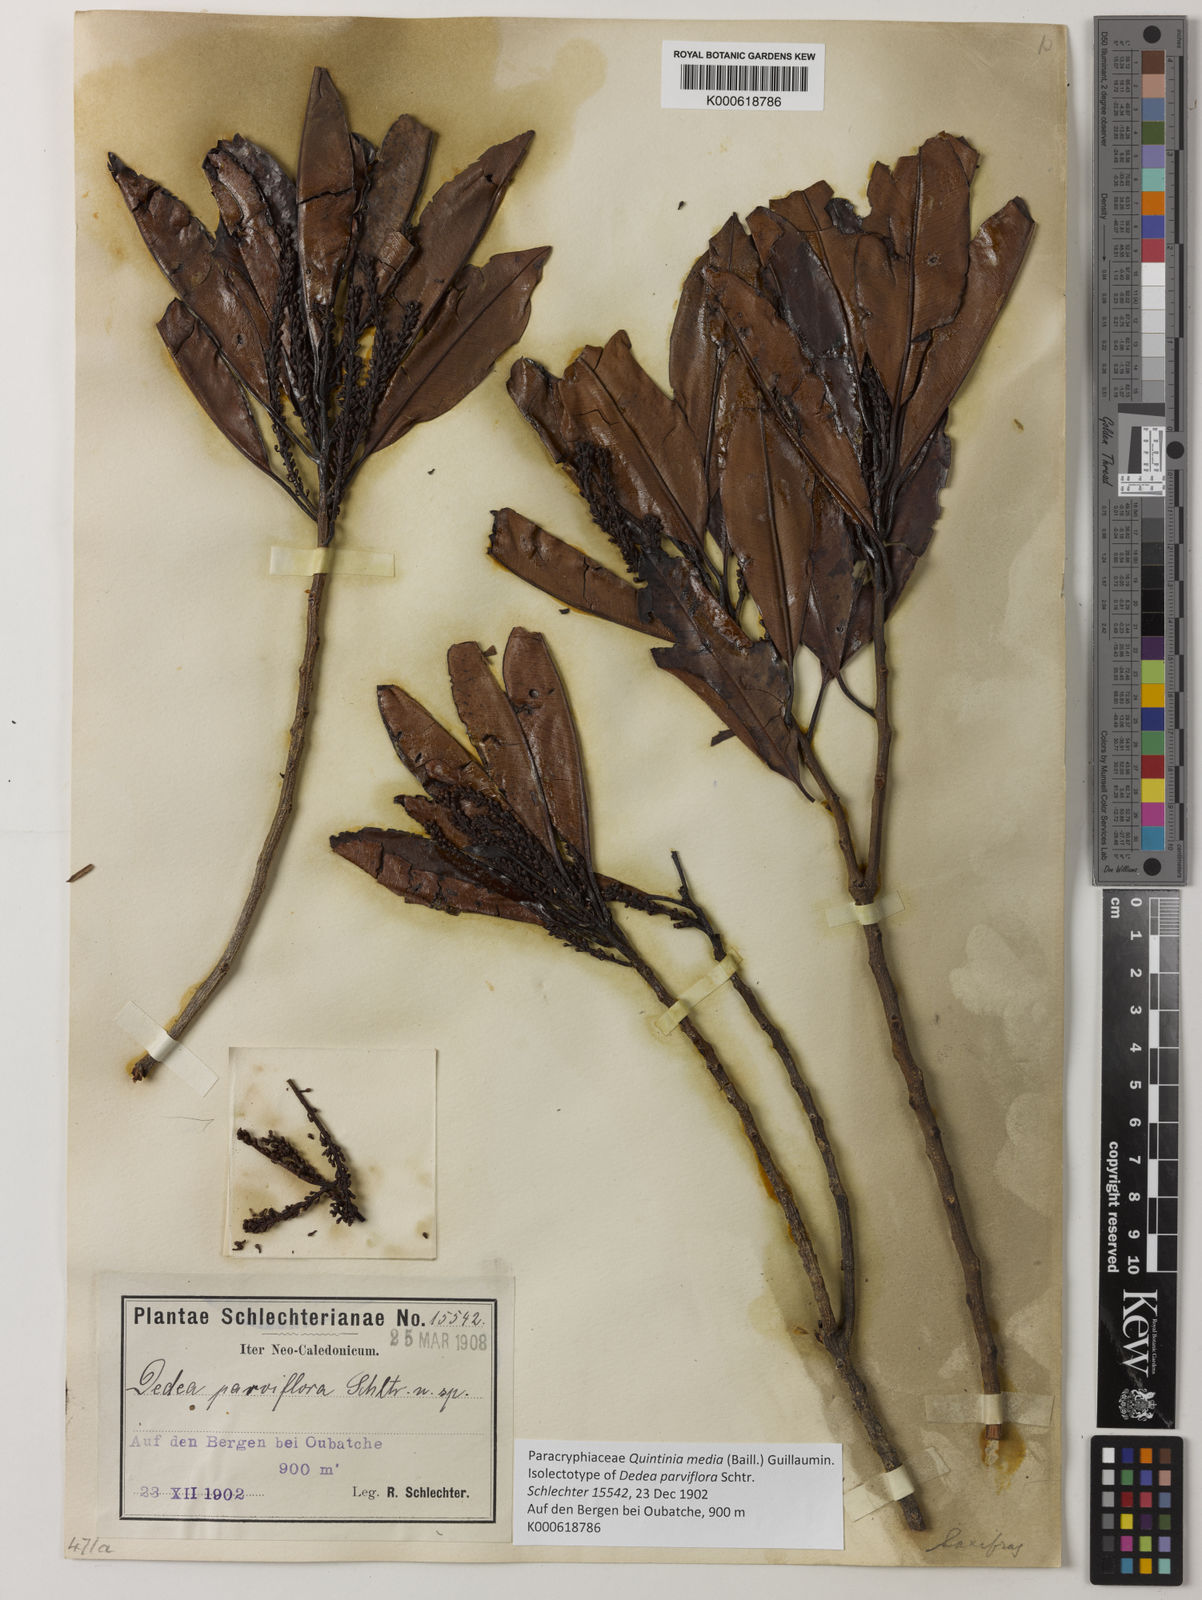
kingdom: Plantae
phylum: Tracheophyta
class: Magnoliopsida
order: Paracryphiales
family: Paracryphiaceae
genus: Quintinia
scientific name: Quintinia media
